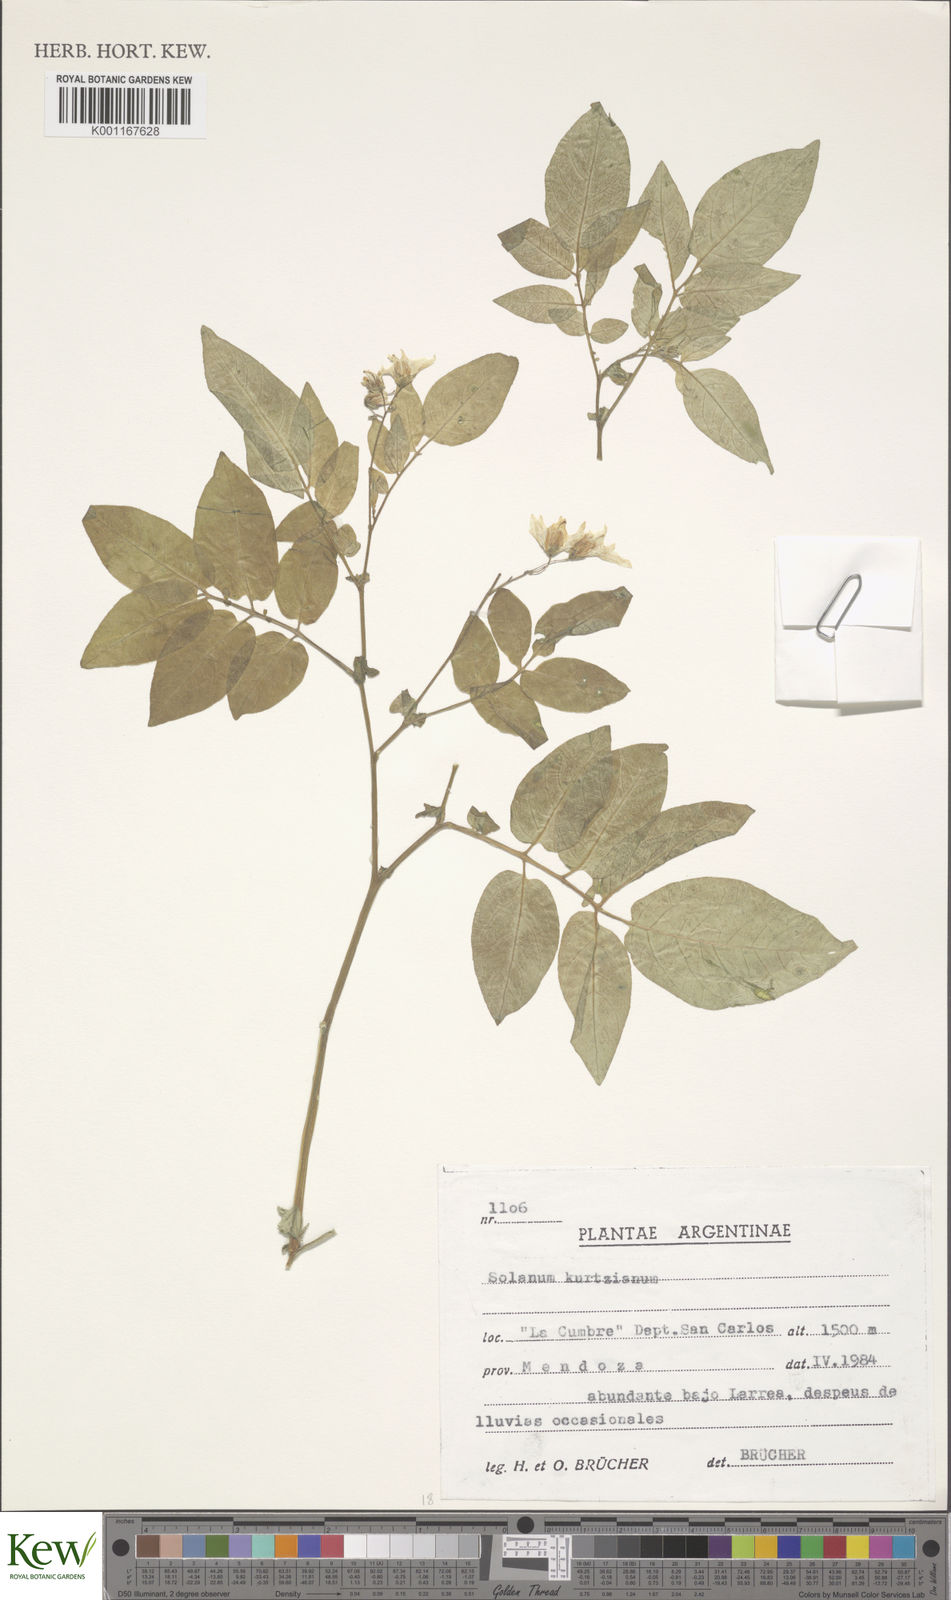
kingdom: Plantae
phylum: Tracheophyta
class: Magnoliopsida
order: Solanales
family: Solanaceae
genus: Solanum
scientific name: Solanum kurtzianum
